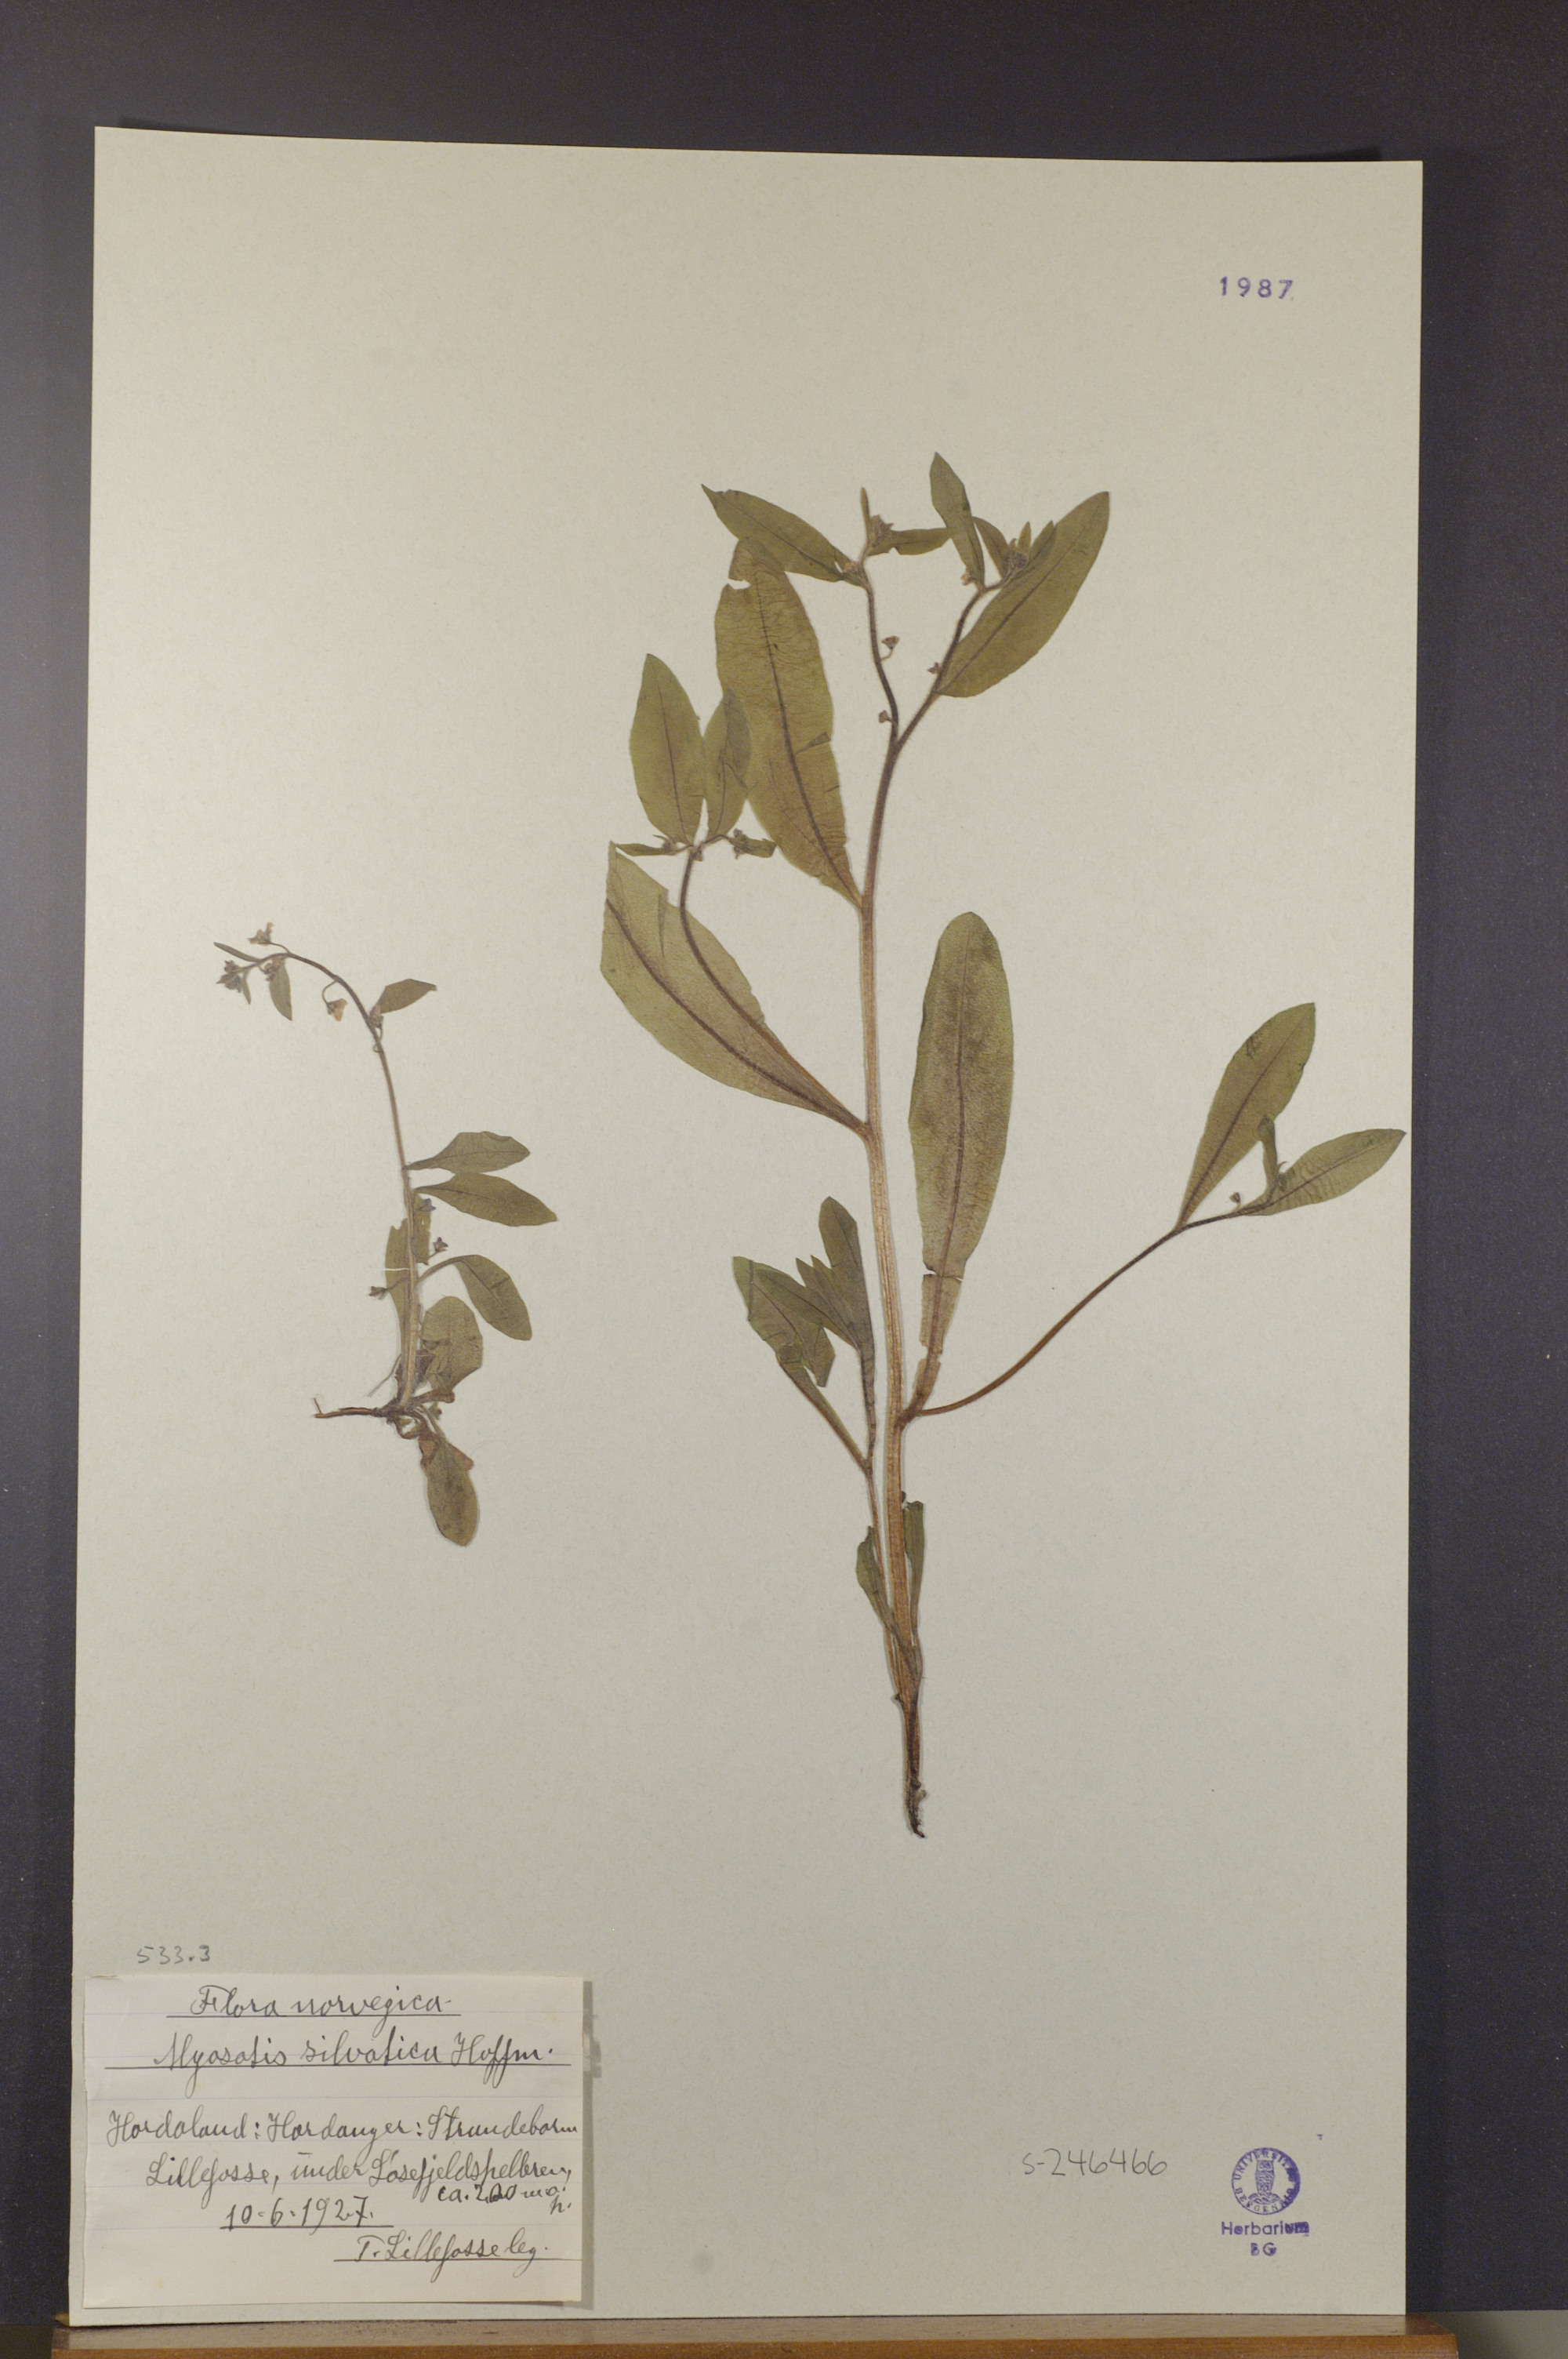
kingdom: Plantae
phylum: Tracheophyta
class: Magnoliopsida
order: Boraginales
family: Boraginaceae
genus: Myosotis
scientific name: Myosotis
